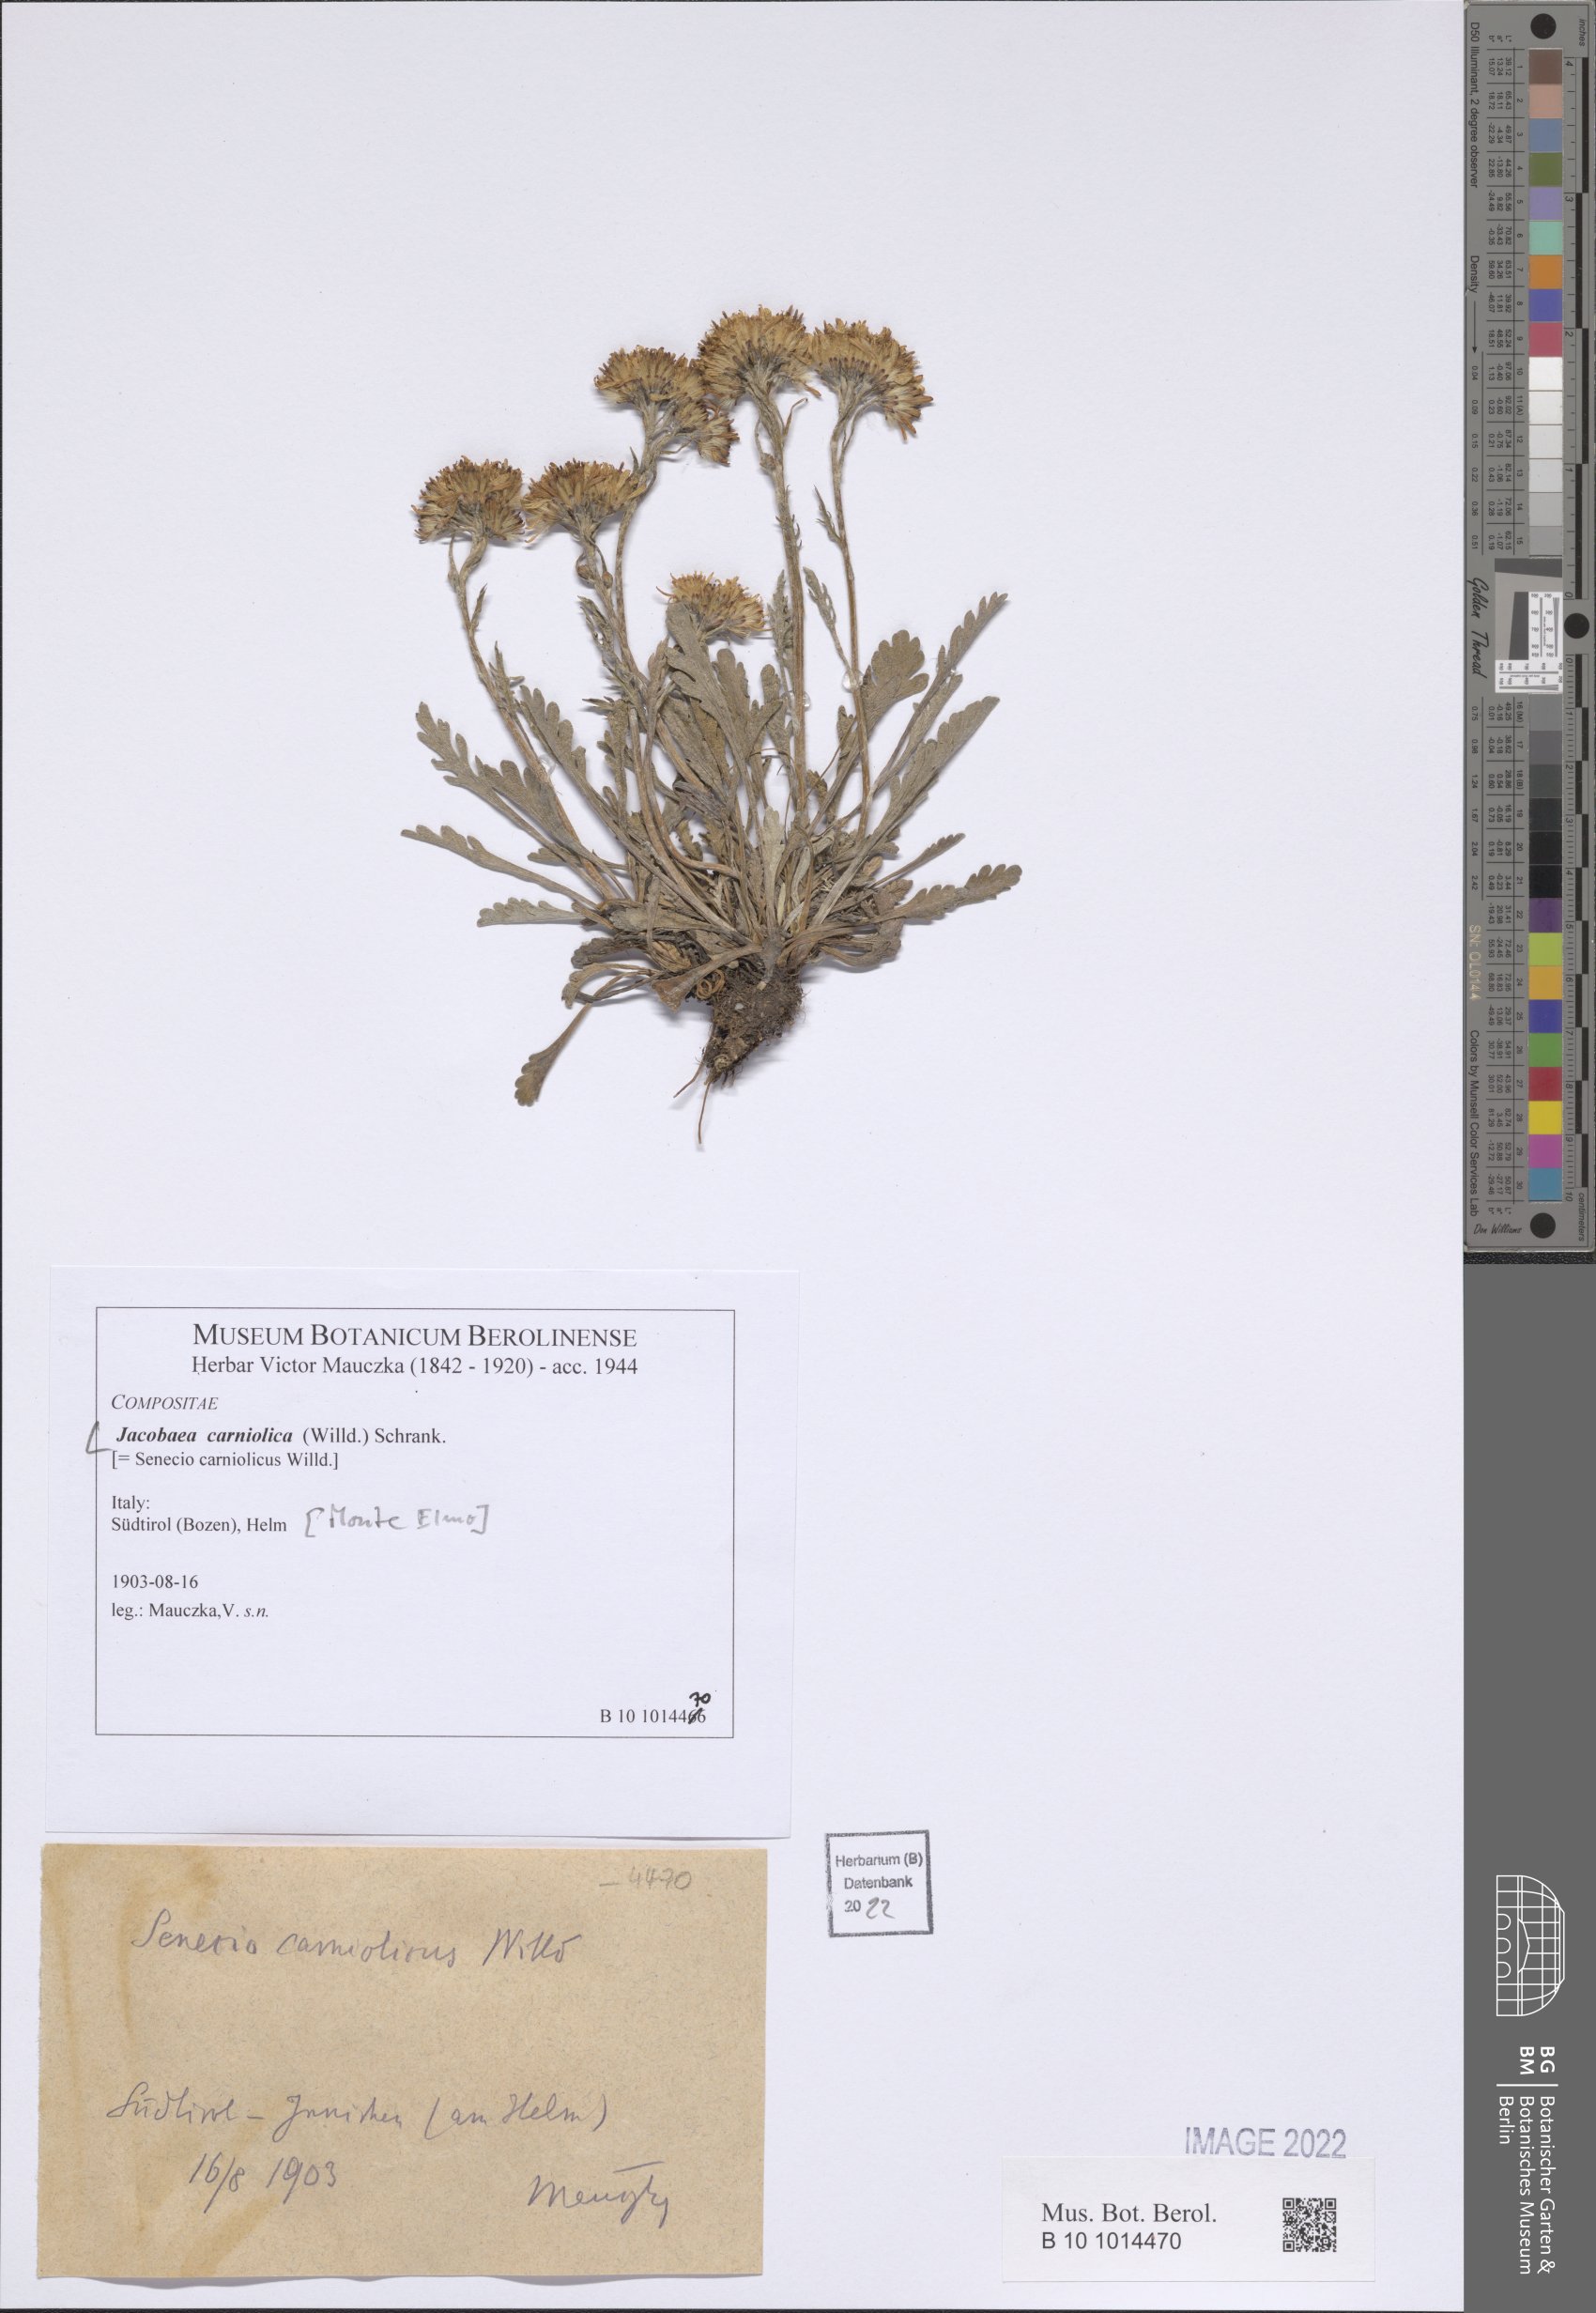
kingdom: Plantae
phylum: Tracheophyta
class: Magnoliopsida
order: Asterales
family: Asteraceae
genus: Jacobaea
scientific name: Jacobaea carniolica
